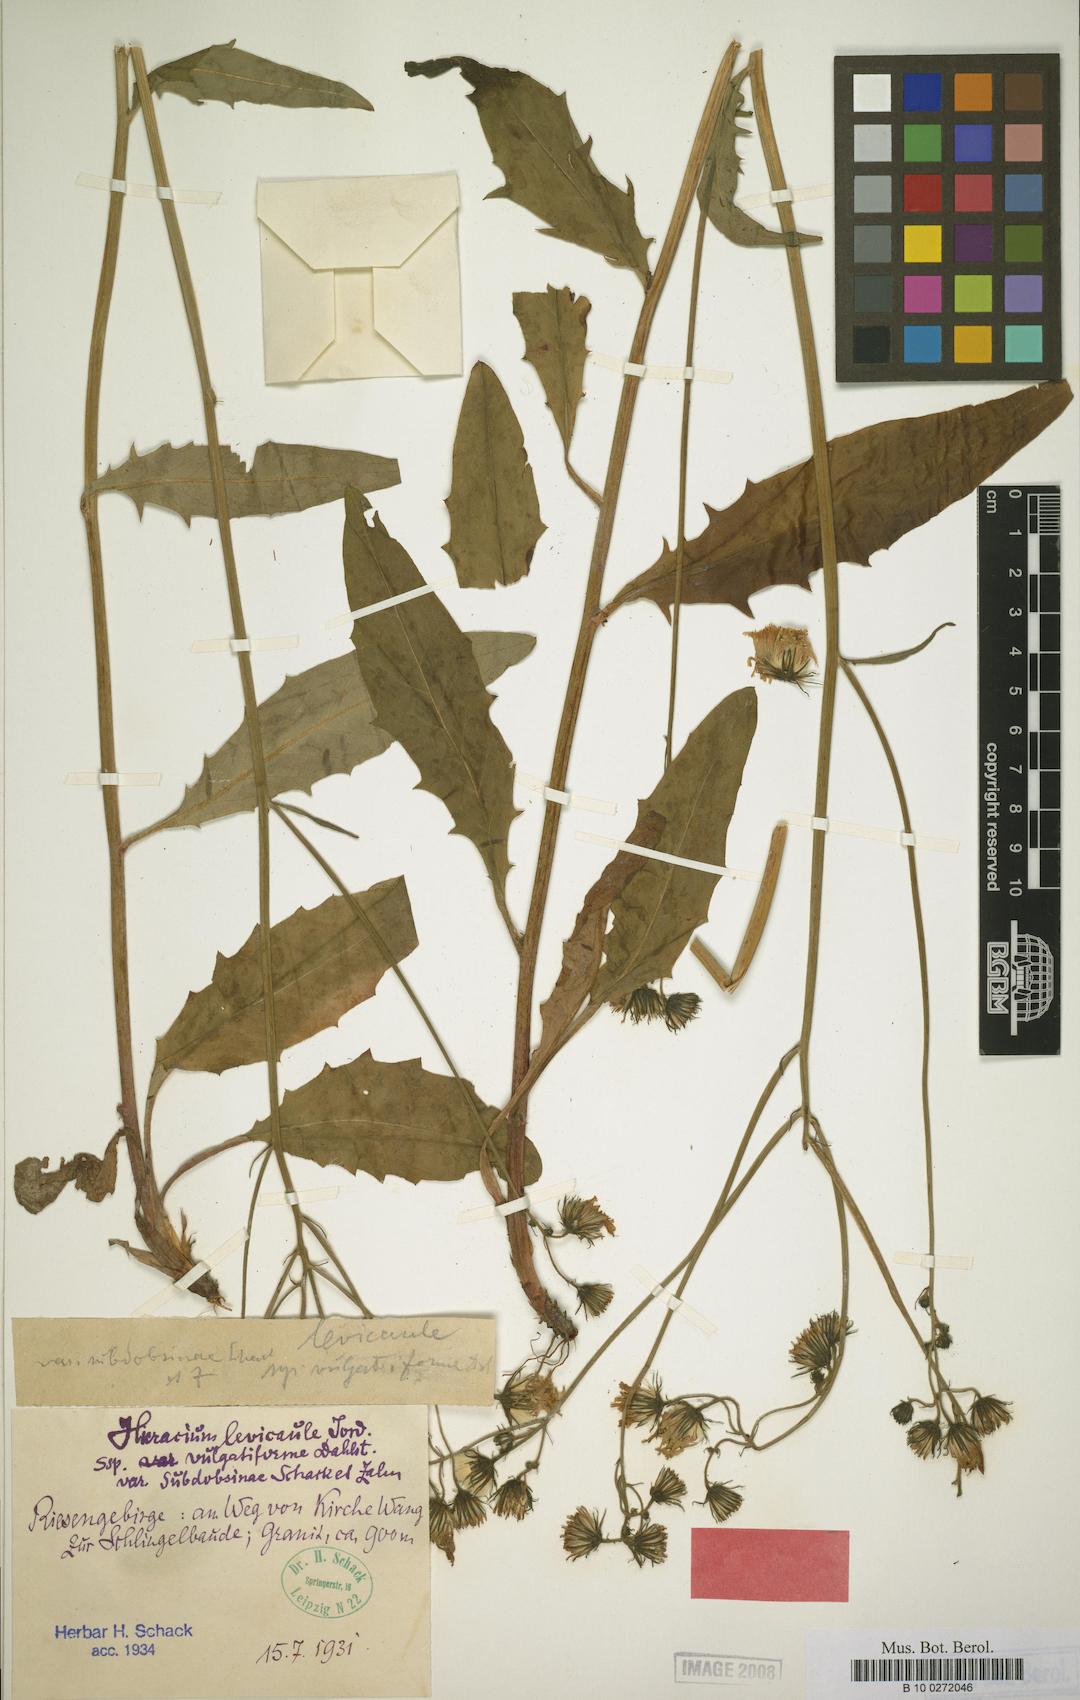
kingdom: Plantae
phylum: Tracheophyta
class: Magnoliopsida
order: Asterales
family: Asteraceae
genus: Hieracium
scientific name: Hieracium levicaule
